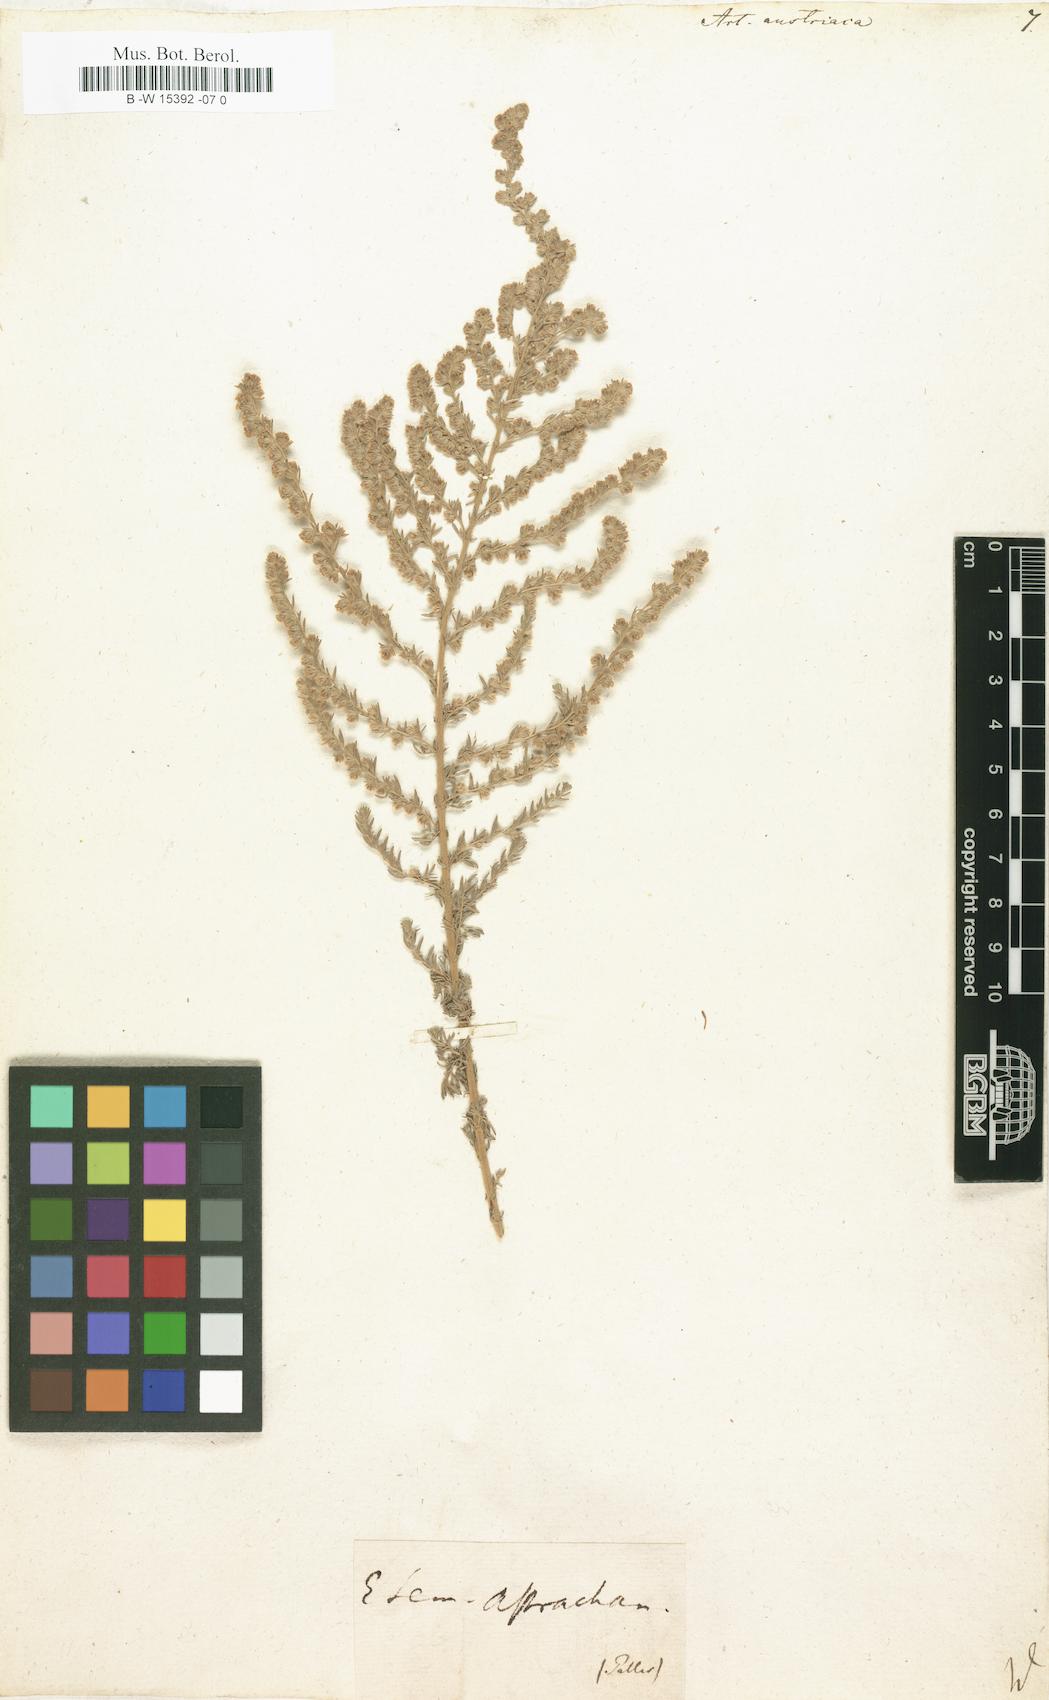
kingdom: Plantae
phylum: Tracheophyta
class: Magnoliopsida
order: Asterales
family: Asteraceae
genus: Artemisia
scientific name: Artemisia austriaca
